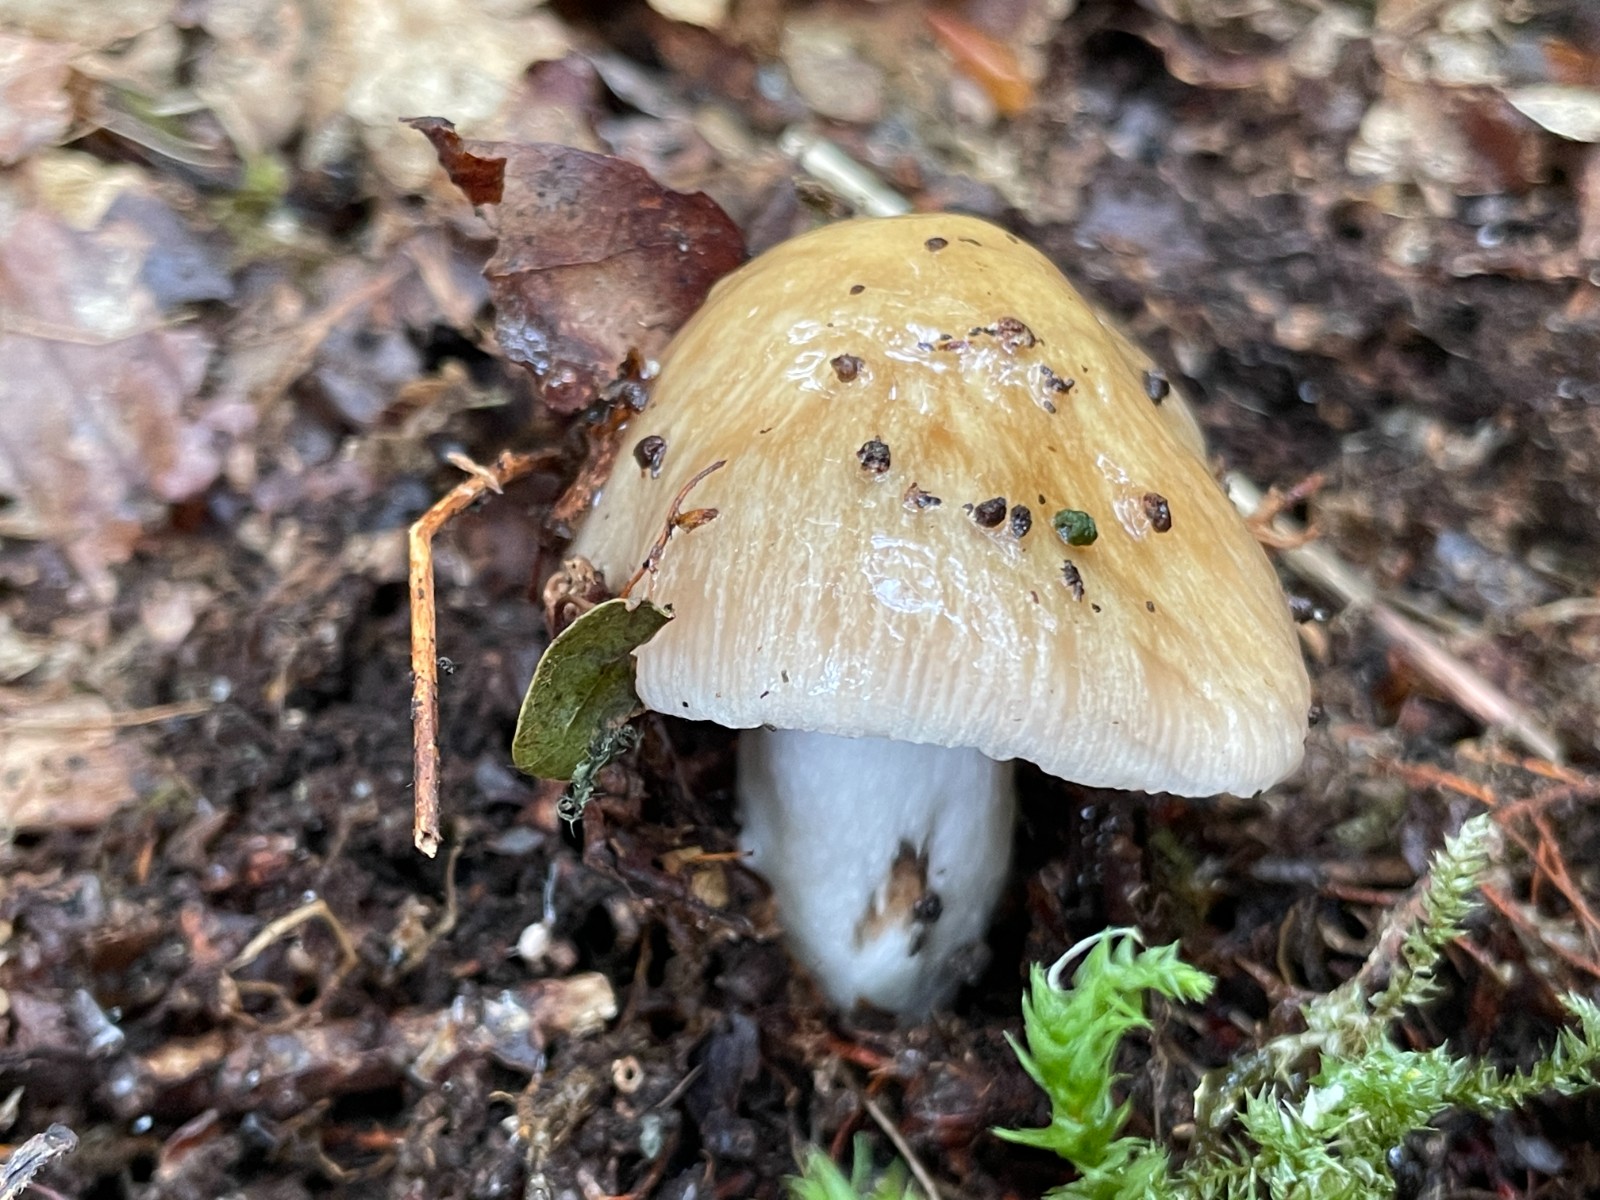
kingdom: Fungi
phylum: Basidiomycota
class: Agaricomycetes
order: Agaricales
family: Cortinariaceae
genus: Cortinarius
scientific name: Cortinarius elatior
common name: høj slørhat
